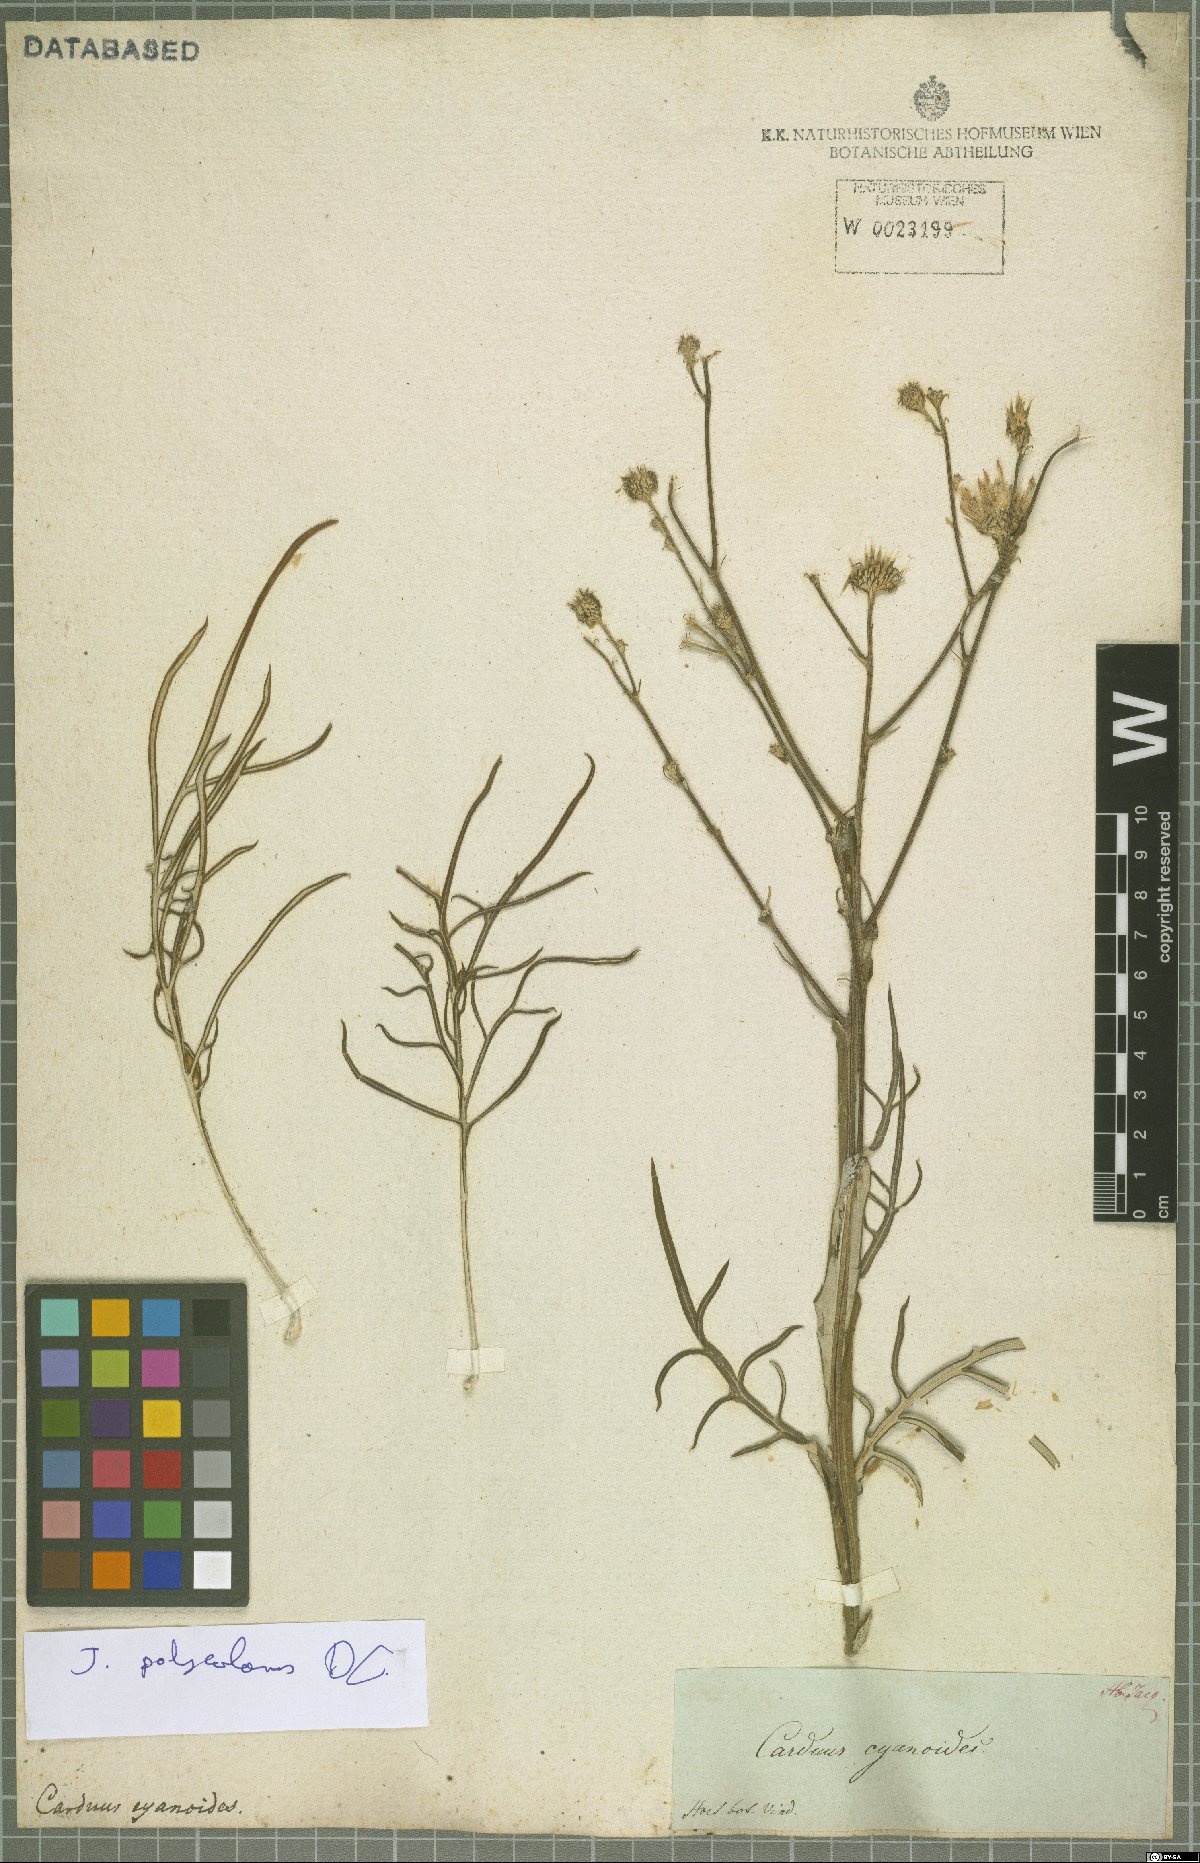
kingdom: Plantae
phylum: Tracheophyta
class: Magnoliopsida
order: Asterales
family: Asteraceae
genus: Jurinea
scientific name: Jurinea polyclonos
